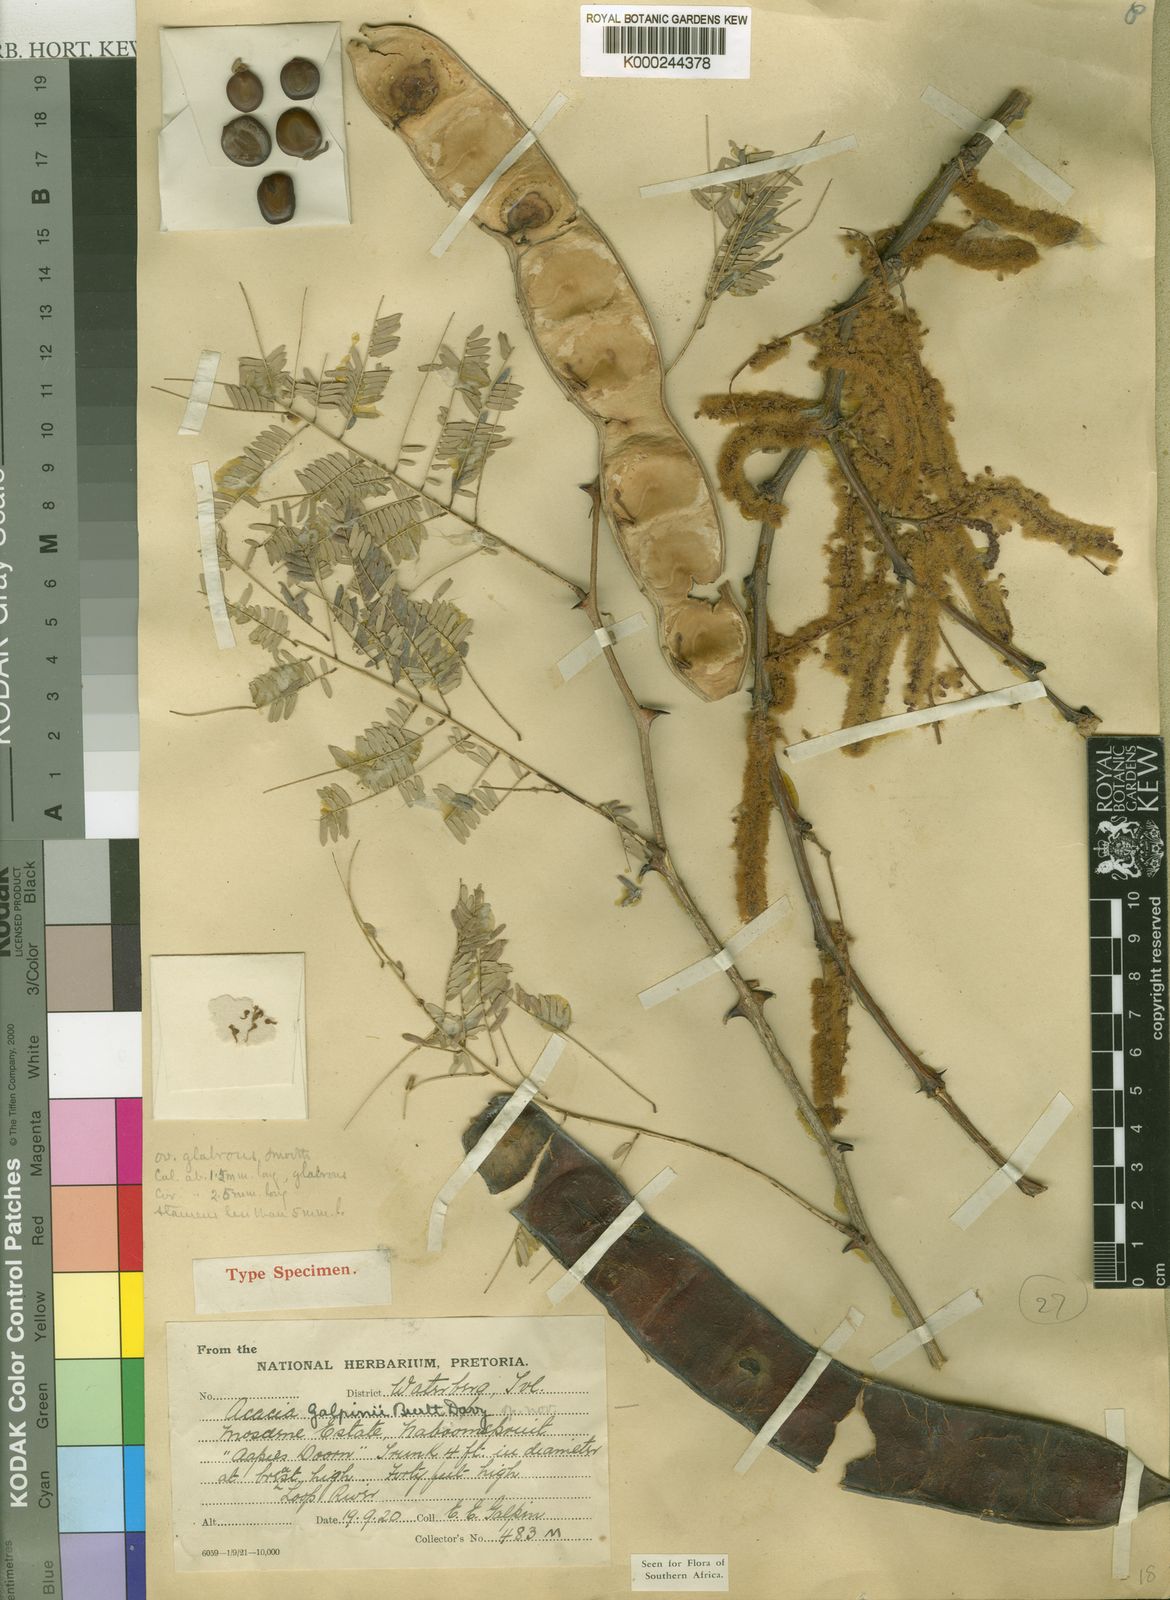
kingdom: Plantae
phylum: Tracheophyta
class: Magnoliopsida
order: Fabales
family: Fabaceae
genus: Senegalia
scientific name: Senegalia galpinii
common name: Monkey-thorn
